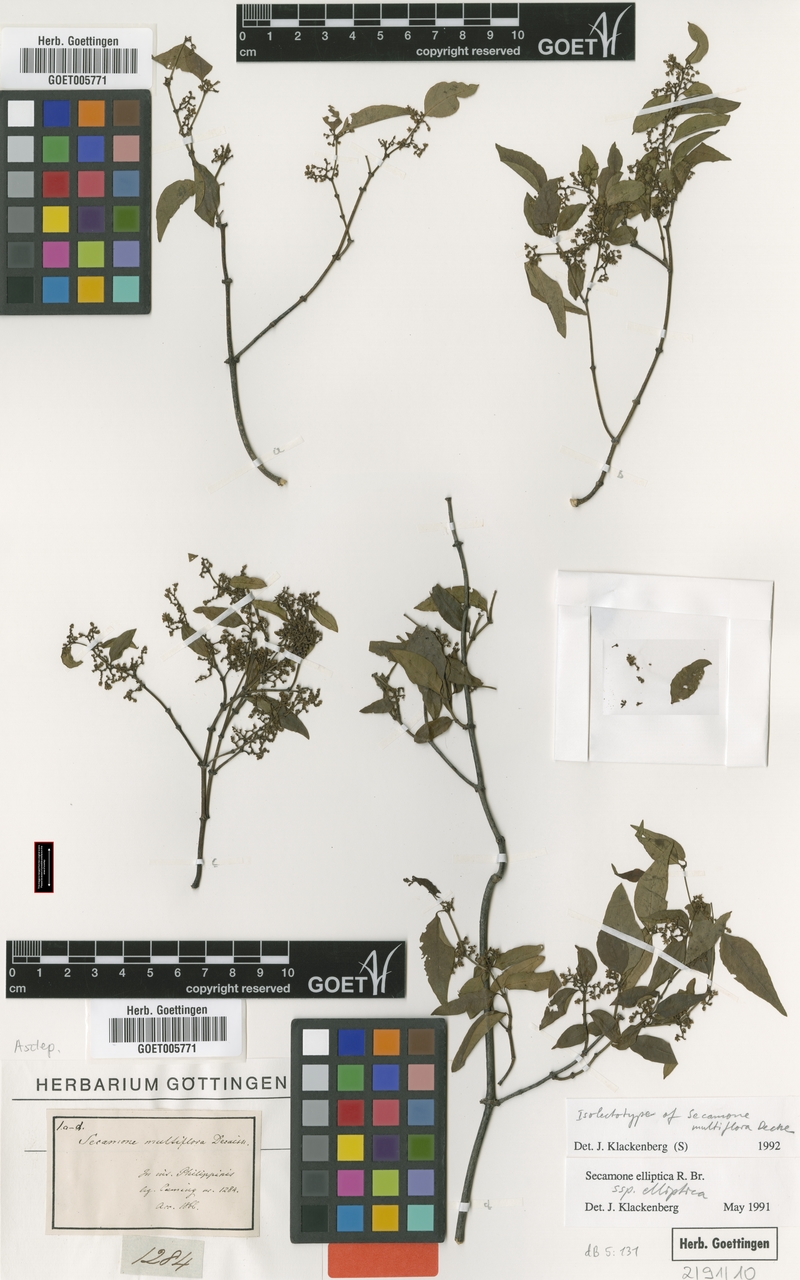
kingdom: Plantae
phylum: Tracheophyta
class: Magnoliopsida
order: Gentianales
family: Apocynaceae
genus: Secamone
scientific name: Secamone elliptica
